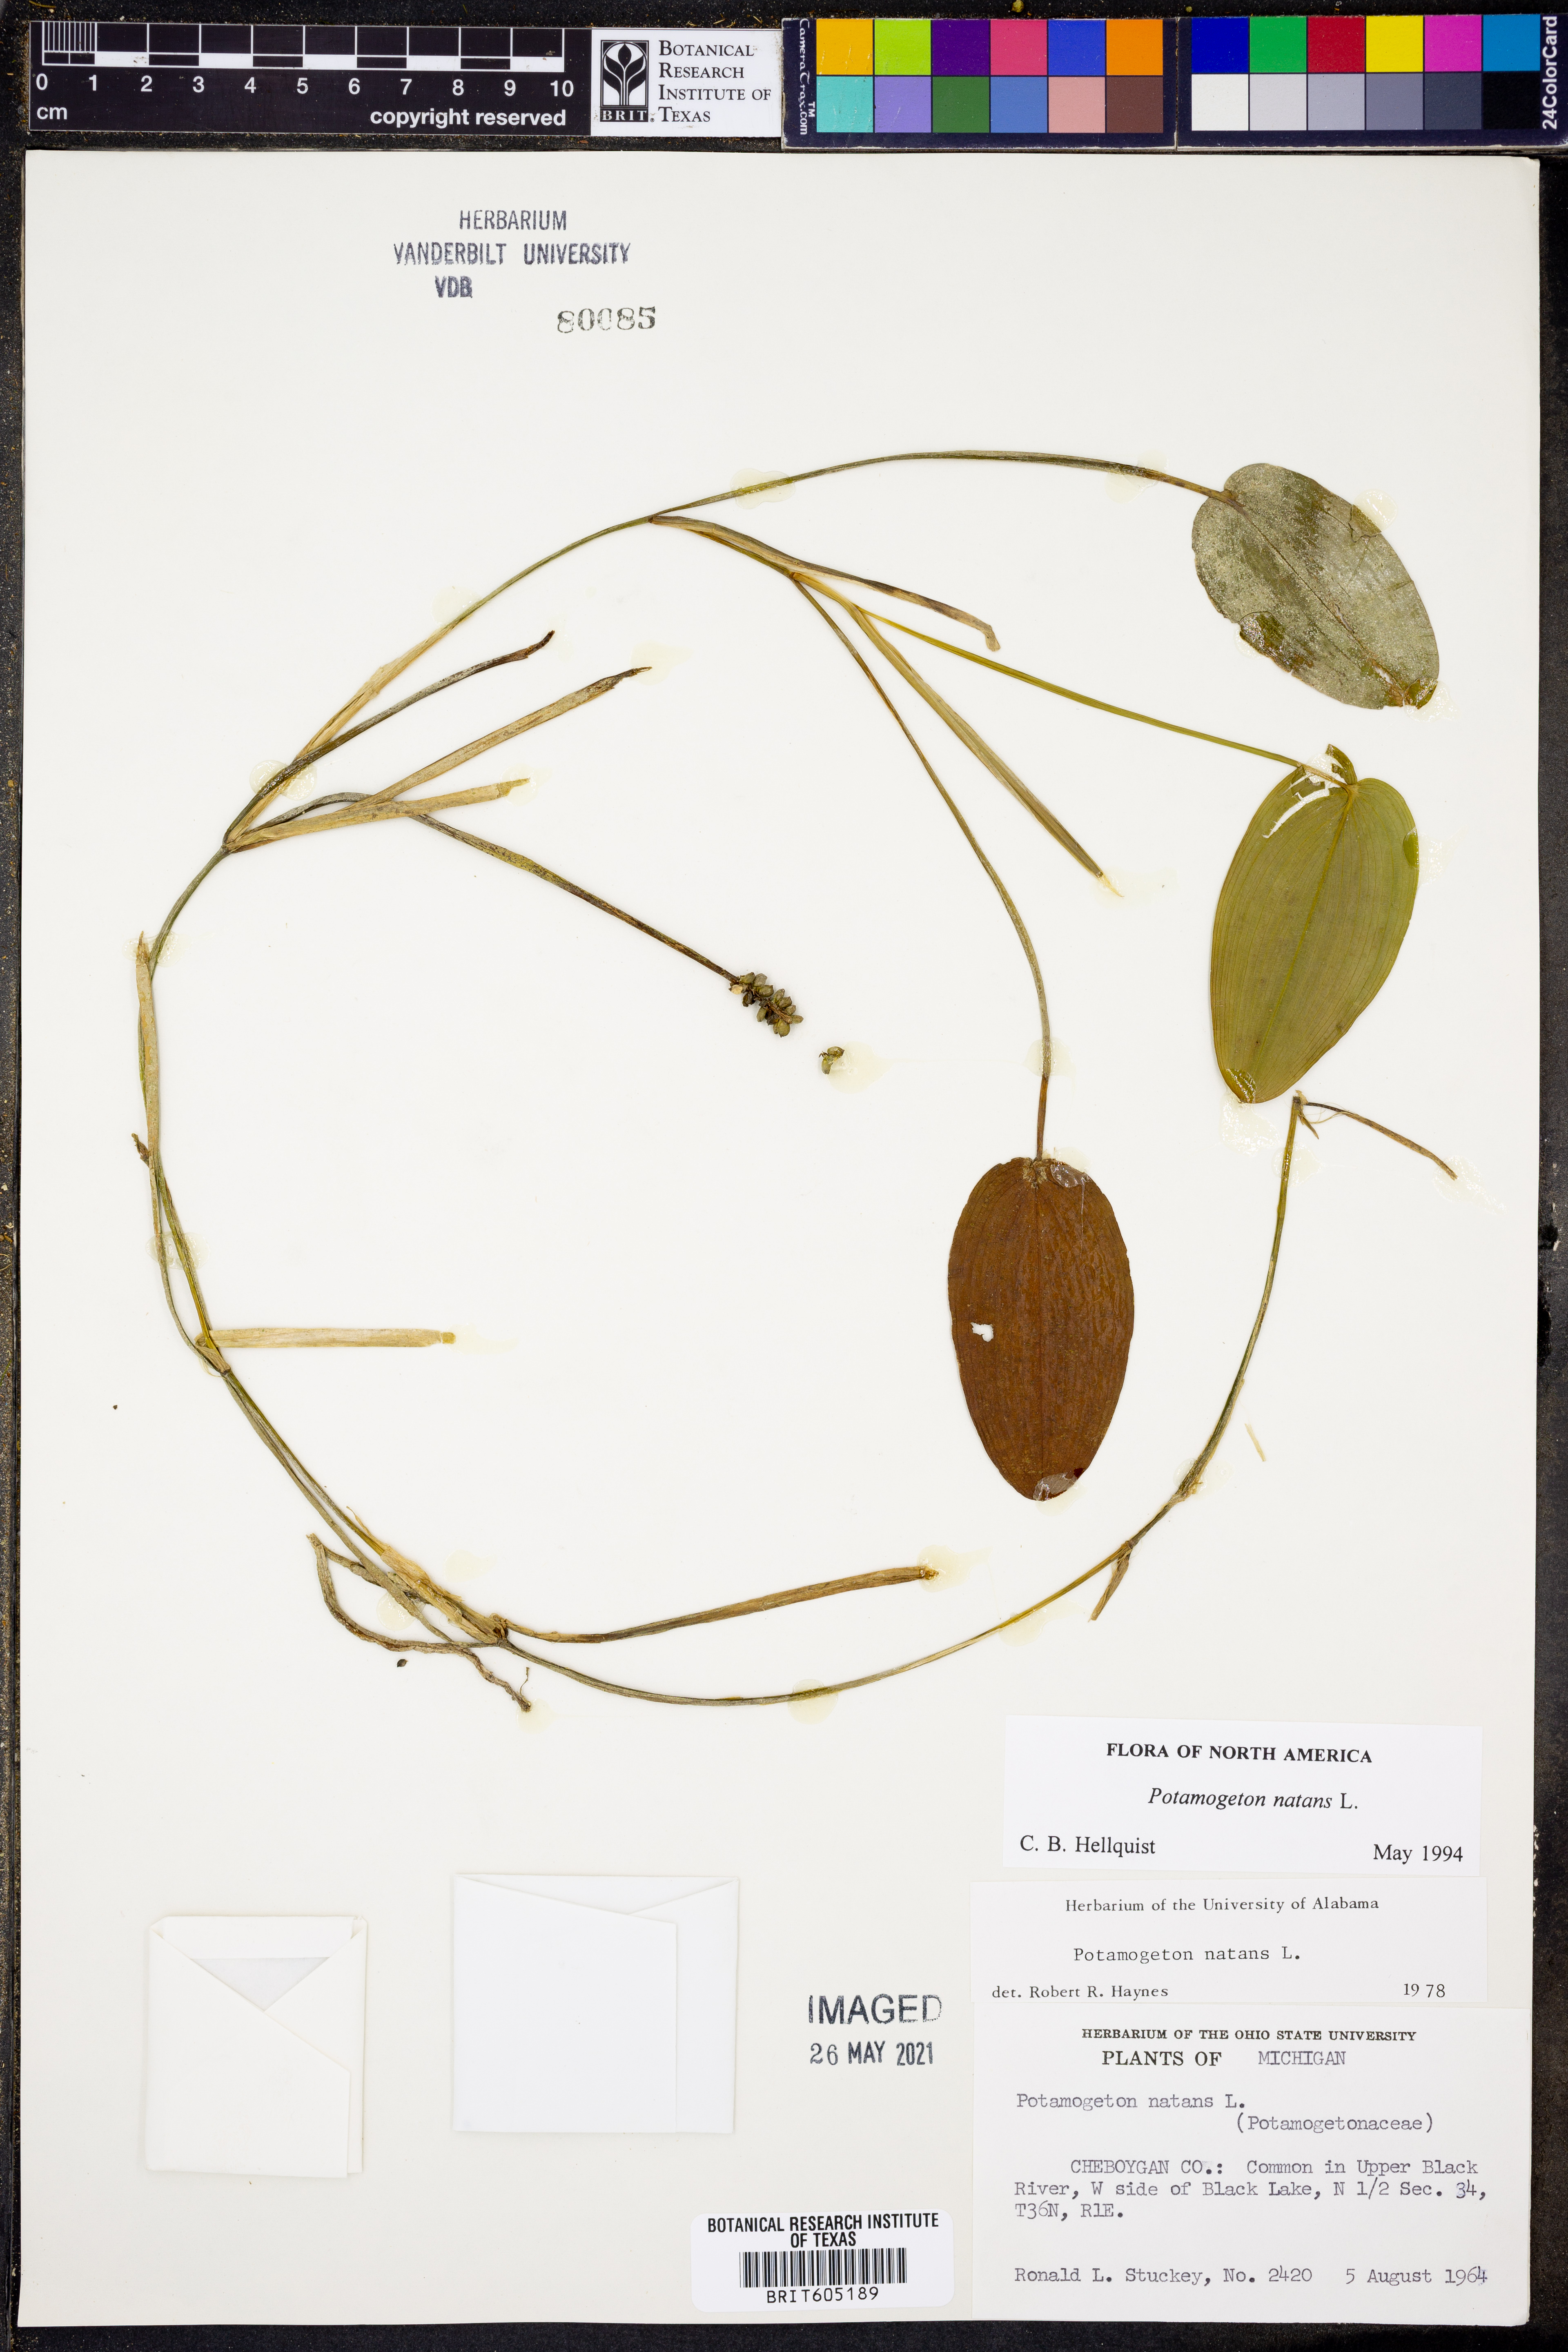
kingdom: Plantae
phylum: Tracheophyta
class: Liliopsida
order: Alismatales
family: Potamogetonaceae
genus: Potamogeton
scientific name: Potamogeton natans
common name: Broad-leaved pondweed
